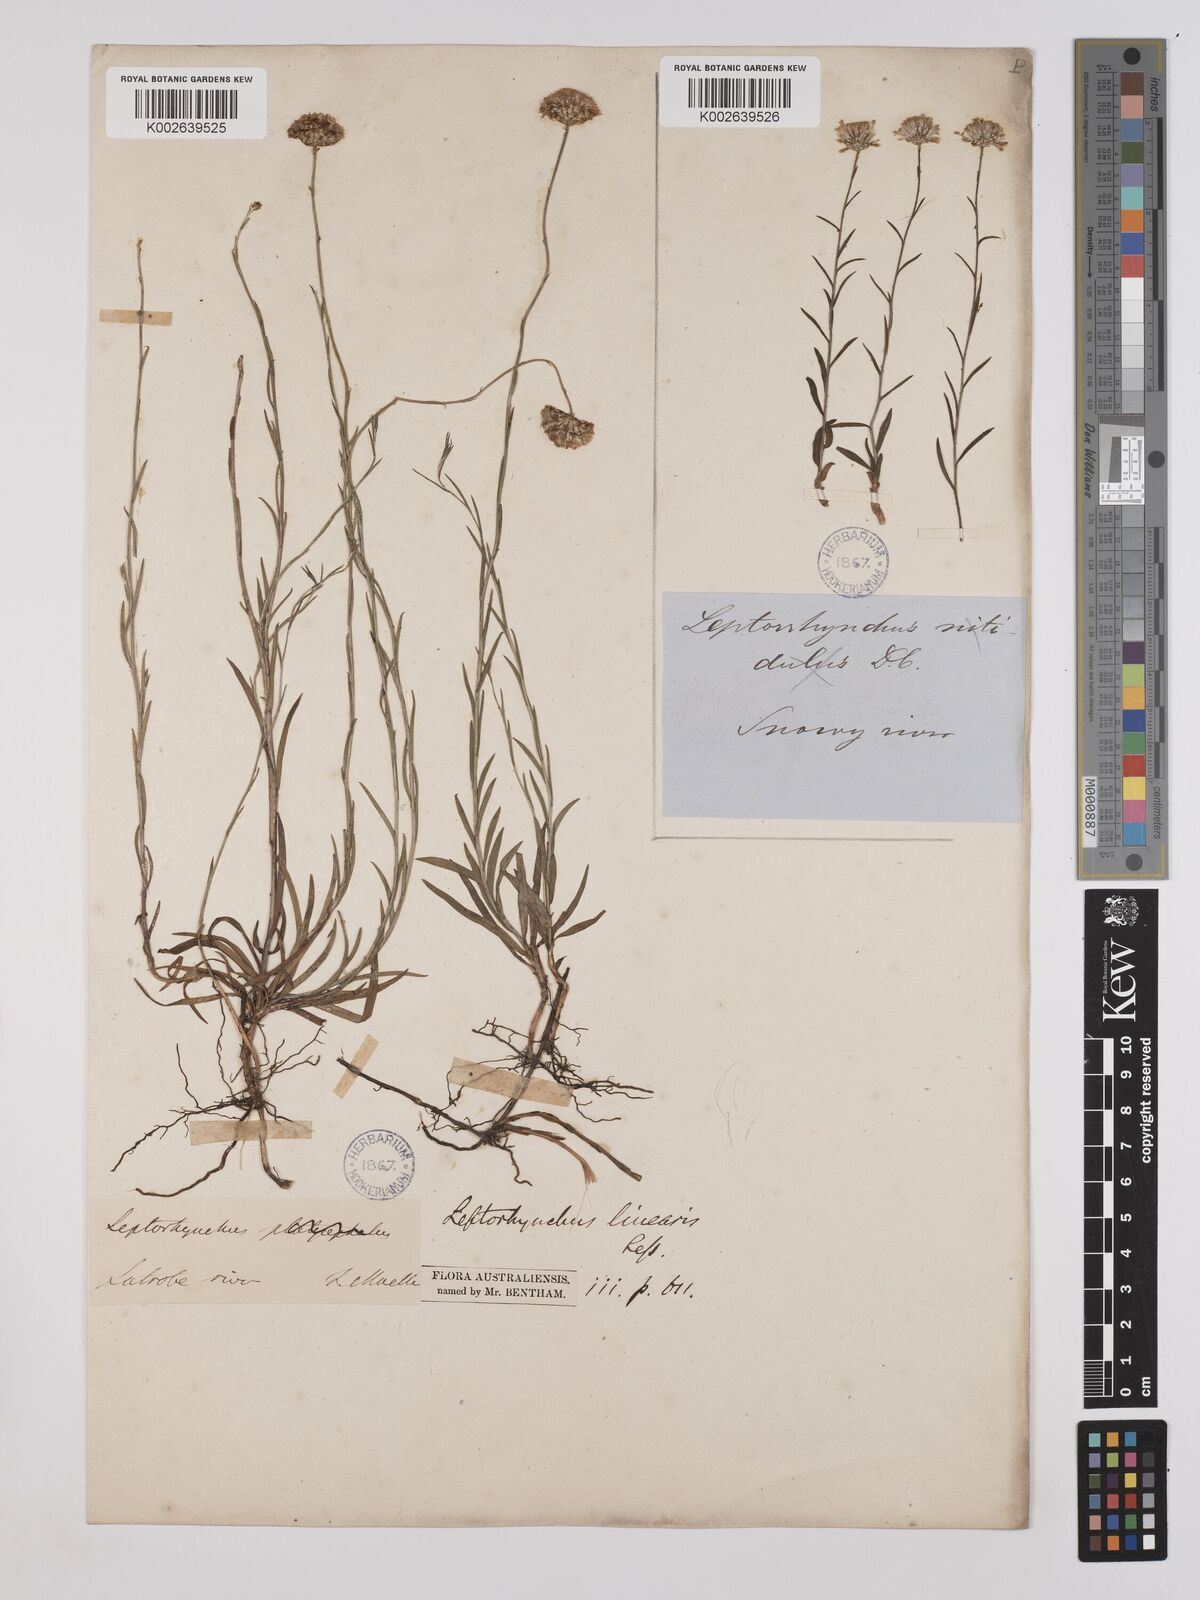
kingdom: Plantae
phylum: Tracheophyta
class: Magnoliopsida
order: Asterales
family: Asteraceae
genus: Leptorhynchos
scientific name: Leptorhynchos nitidulus
